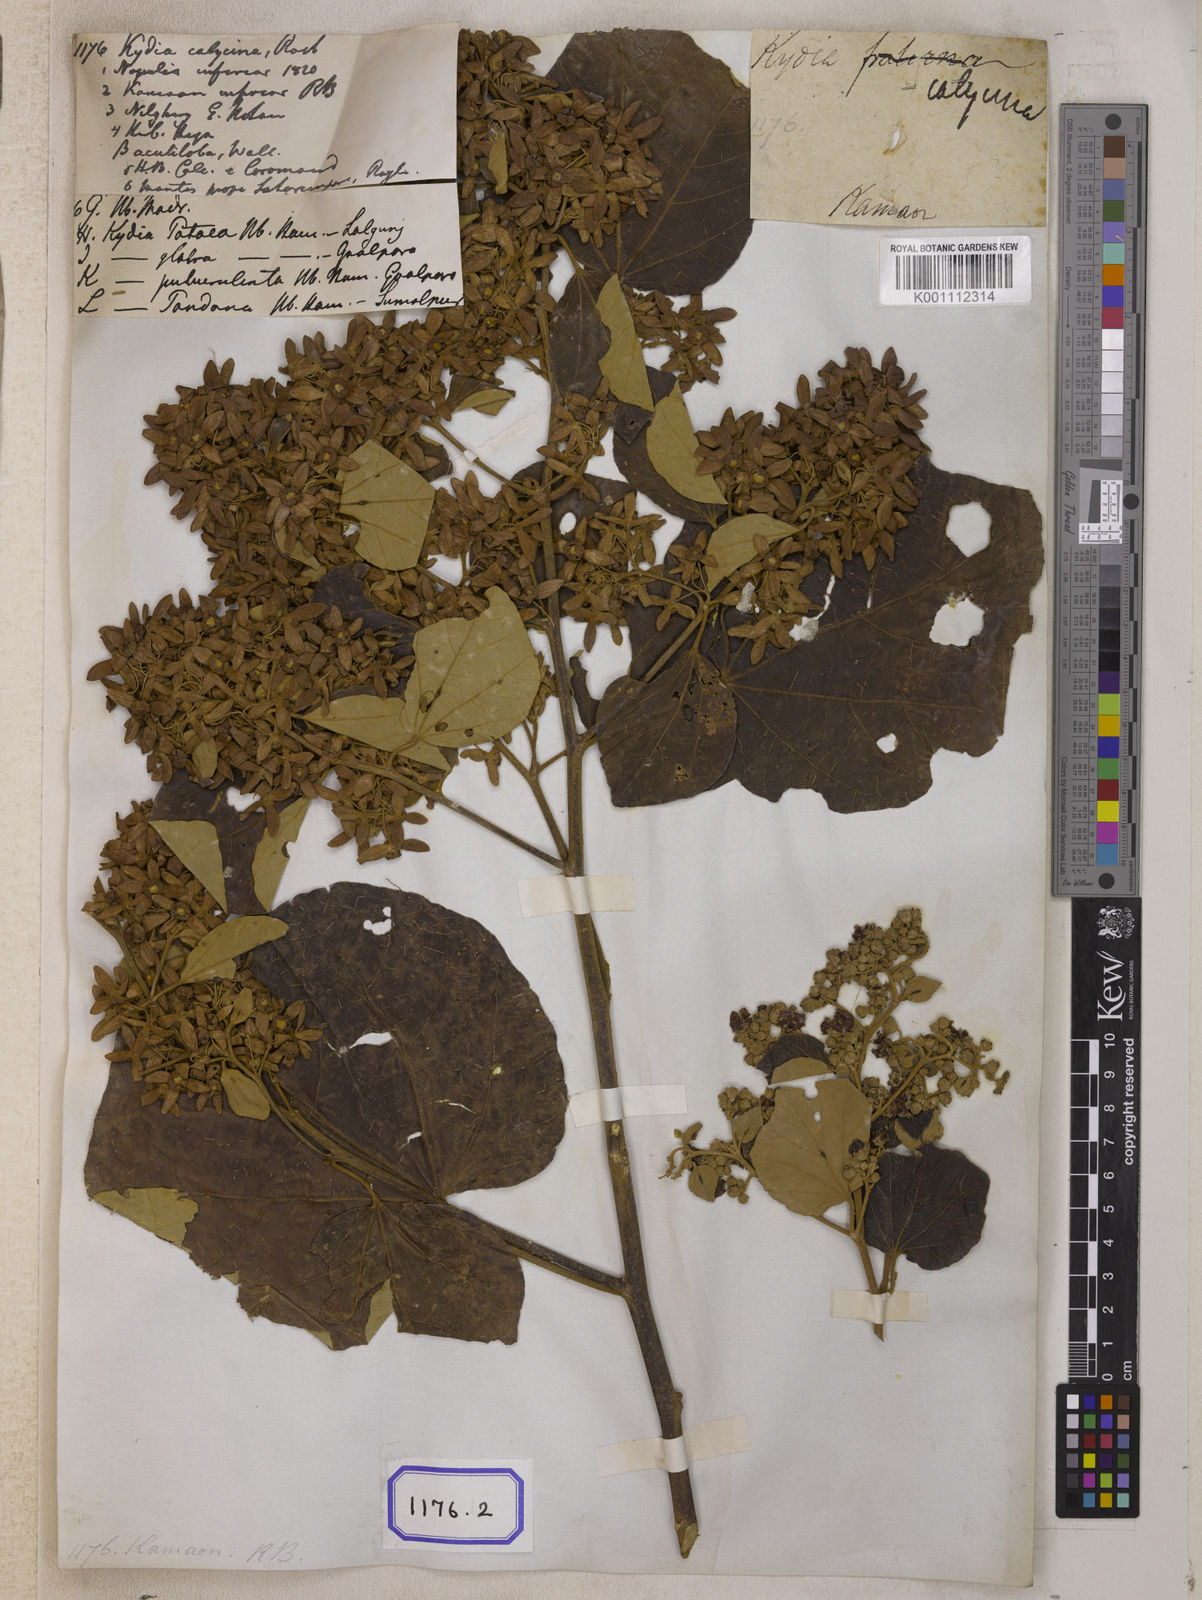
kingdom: Plantae
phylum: Tracheophyta
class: Magnoliopsida
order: Malvales
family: Malvaceae
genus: Kydia
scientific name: Kydia calycina
